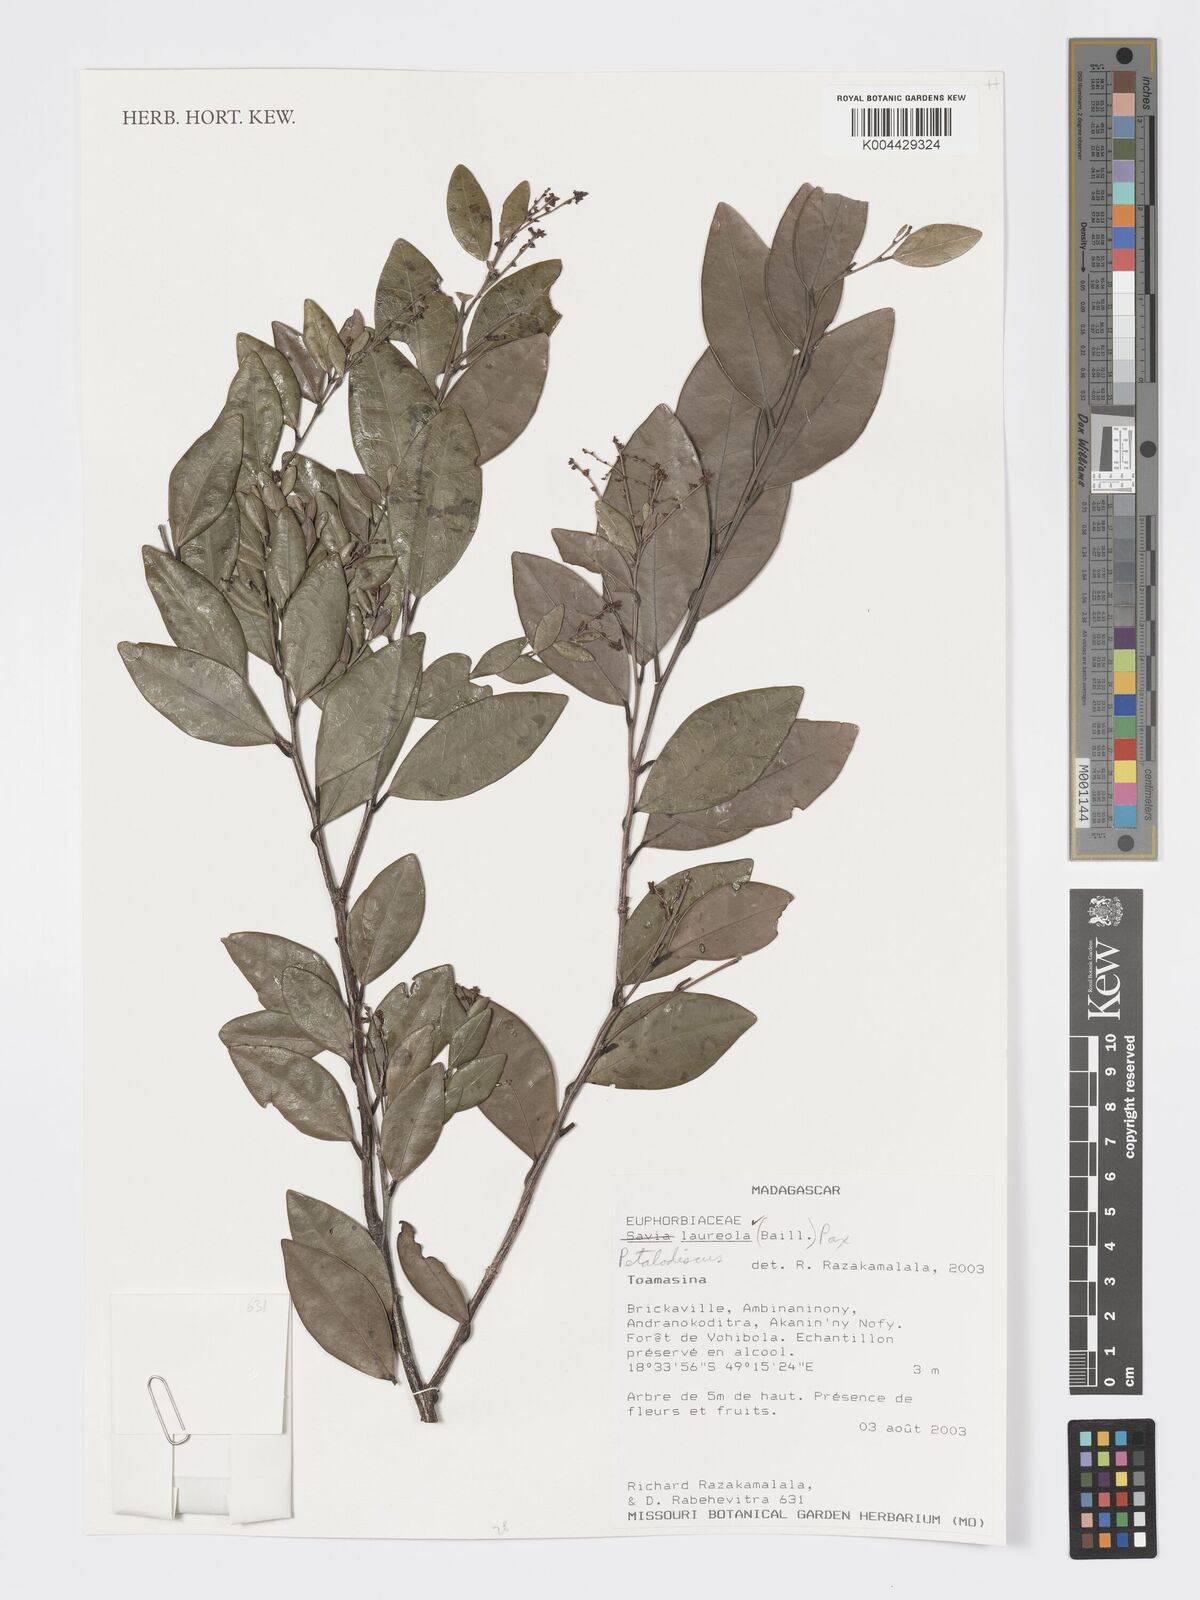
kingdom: Plantae
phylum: Tracheophyta
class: Magnoliopsida
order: Malpighiales
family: Phyllanthaceae
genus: Wielandia
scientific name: Wielandia laureola
